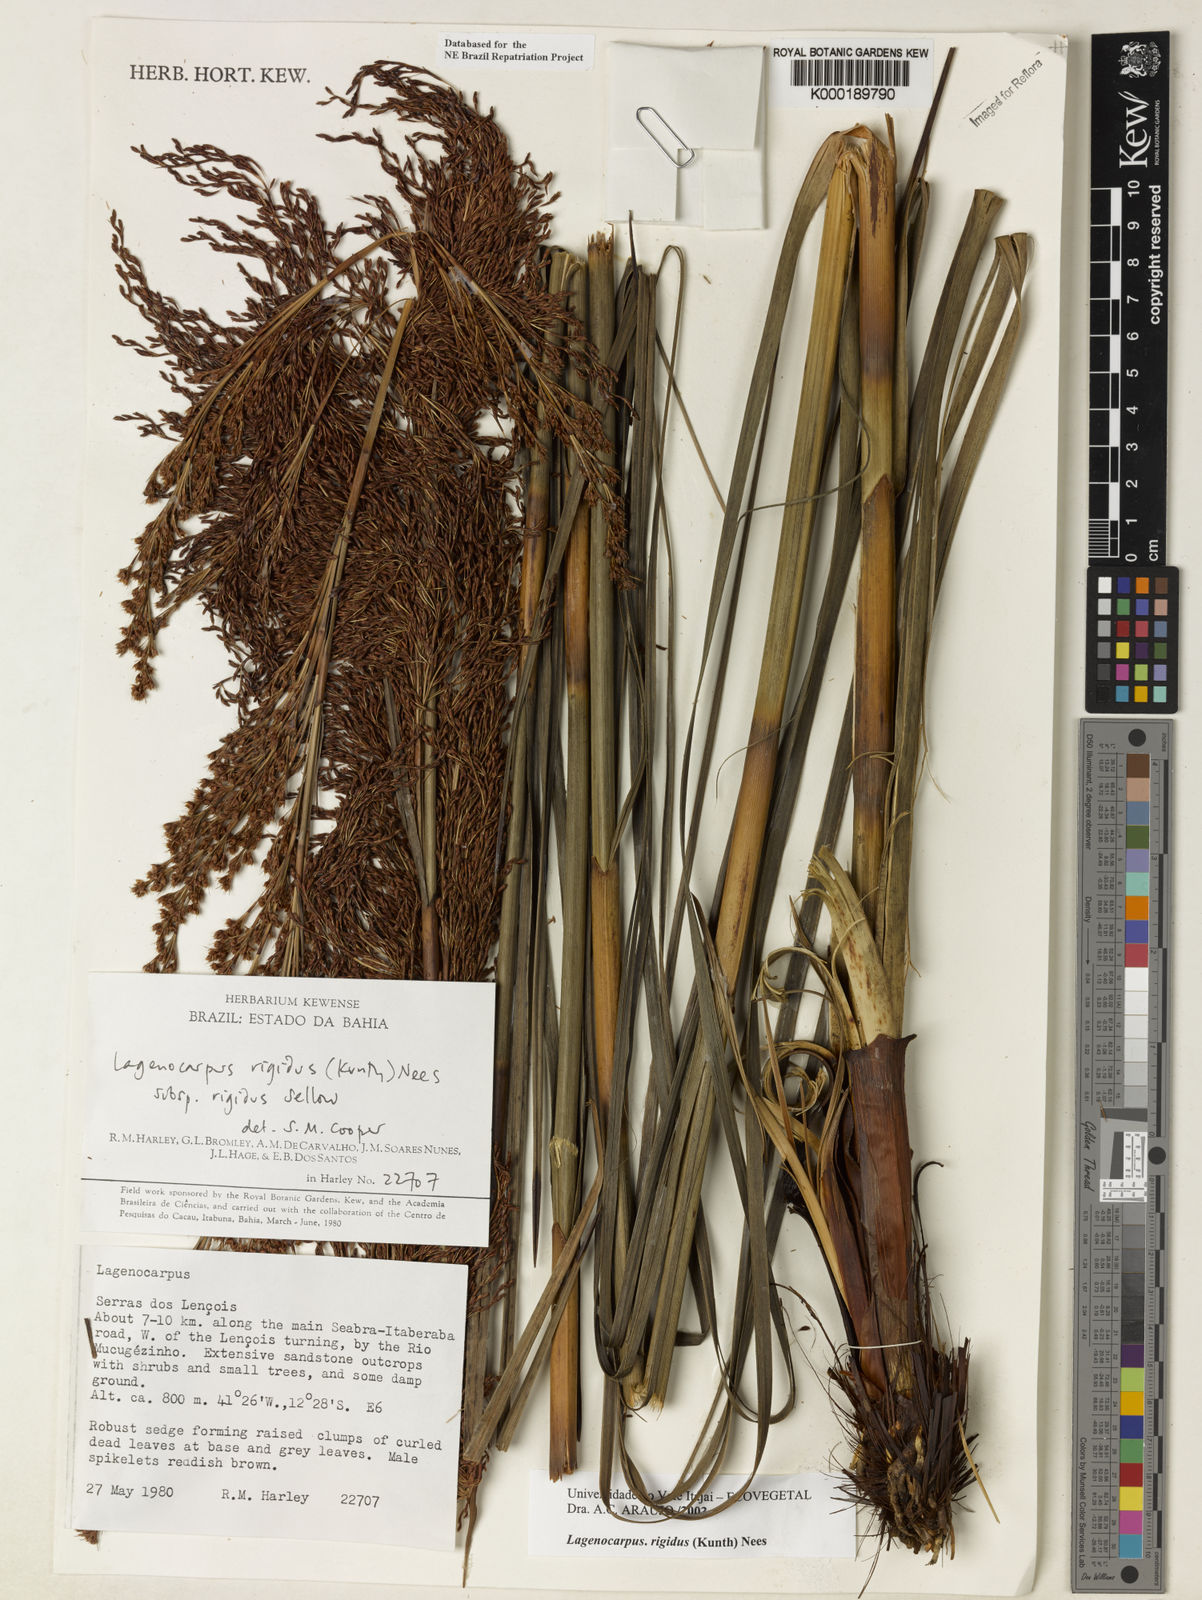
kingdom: Plantae
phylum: Tracheophyta
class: Liliopsida
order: Poales
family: Cyperaceae
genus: Lagenocarpus
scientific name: Lagenocarpus rigidus
